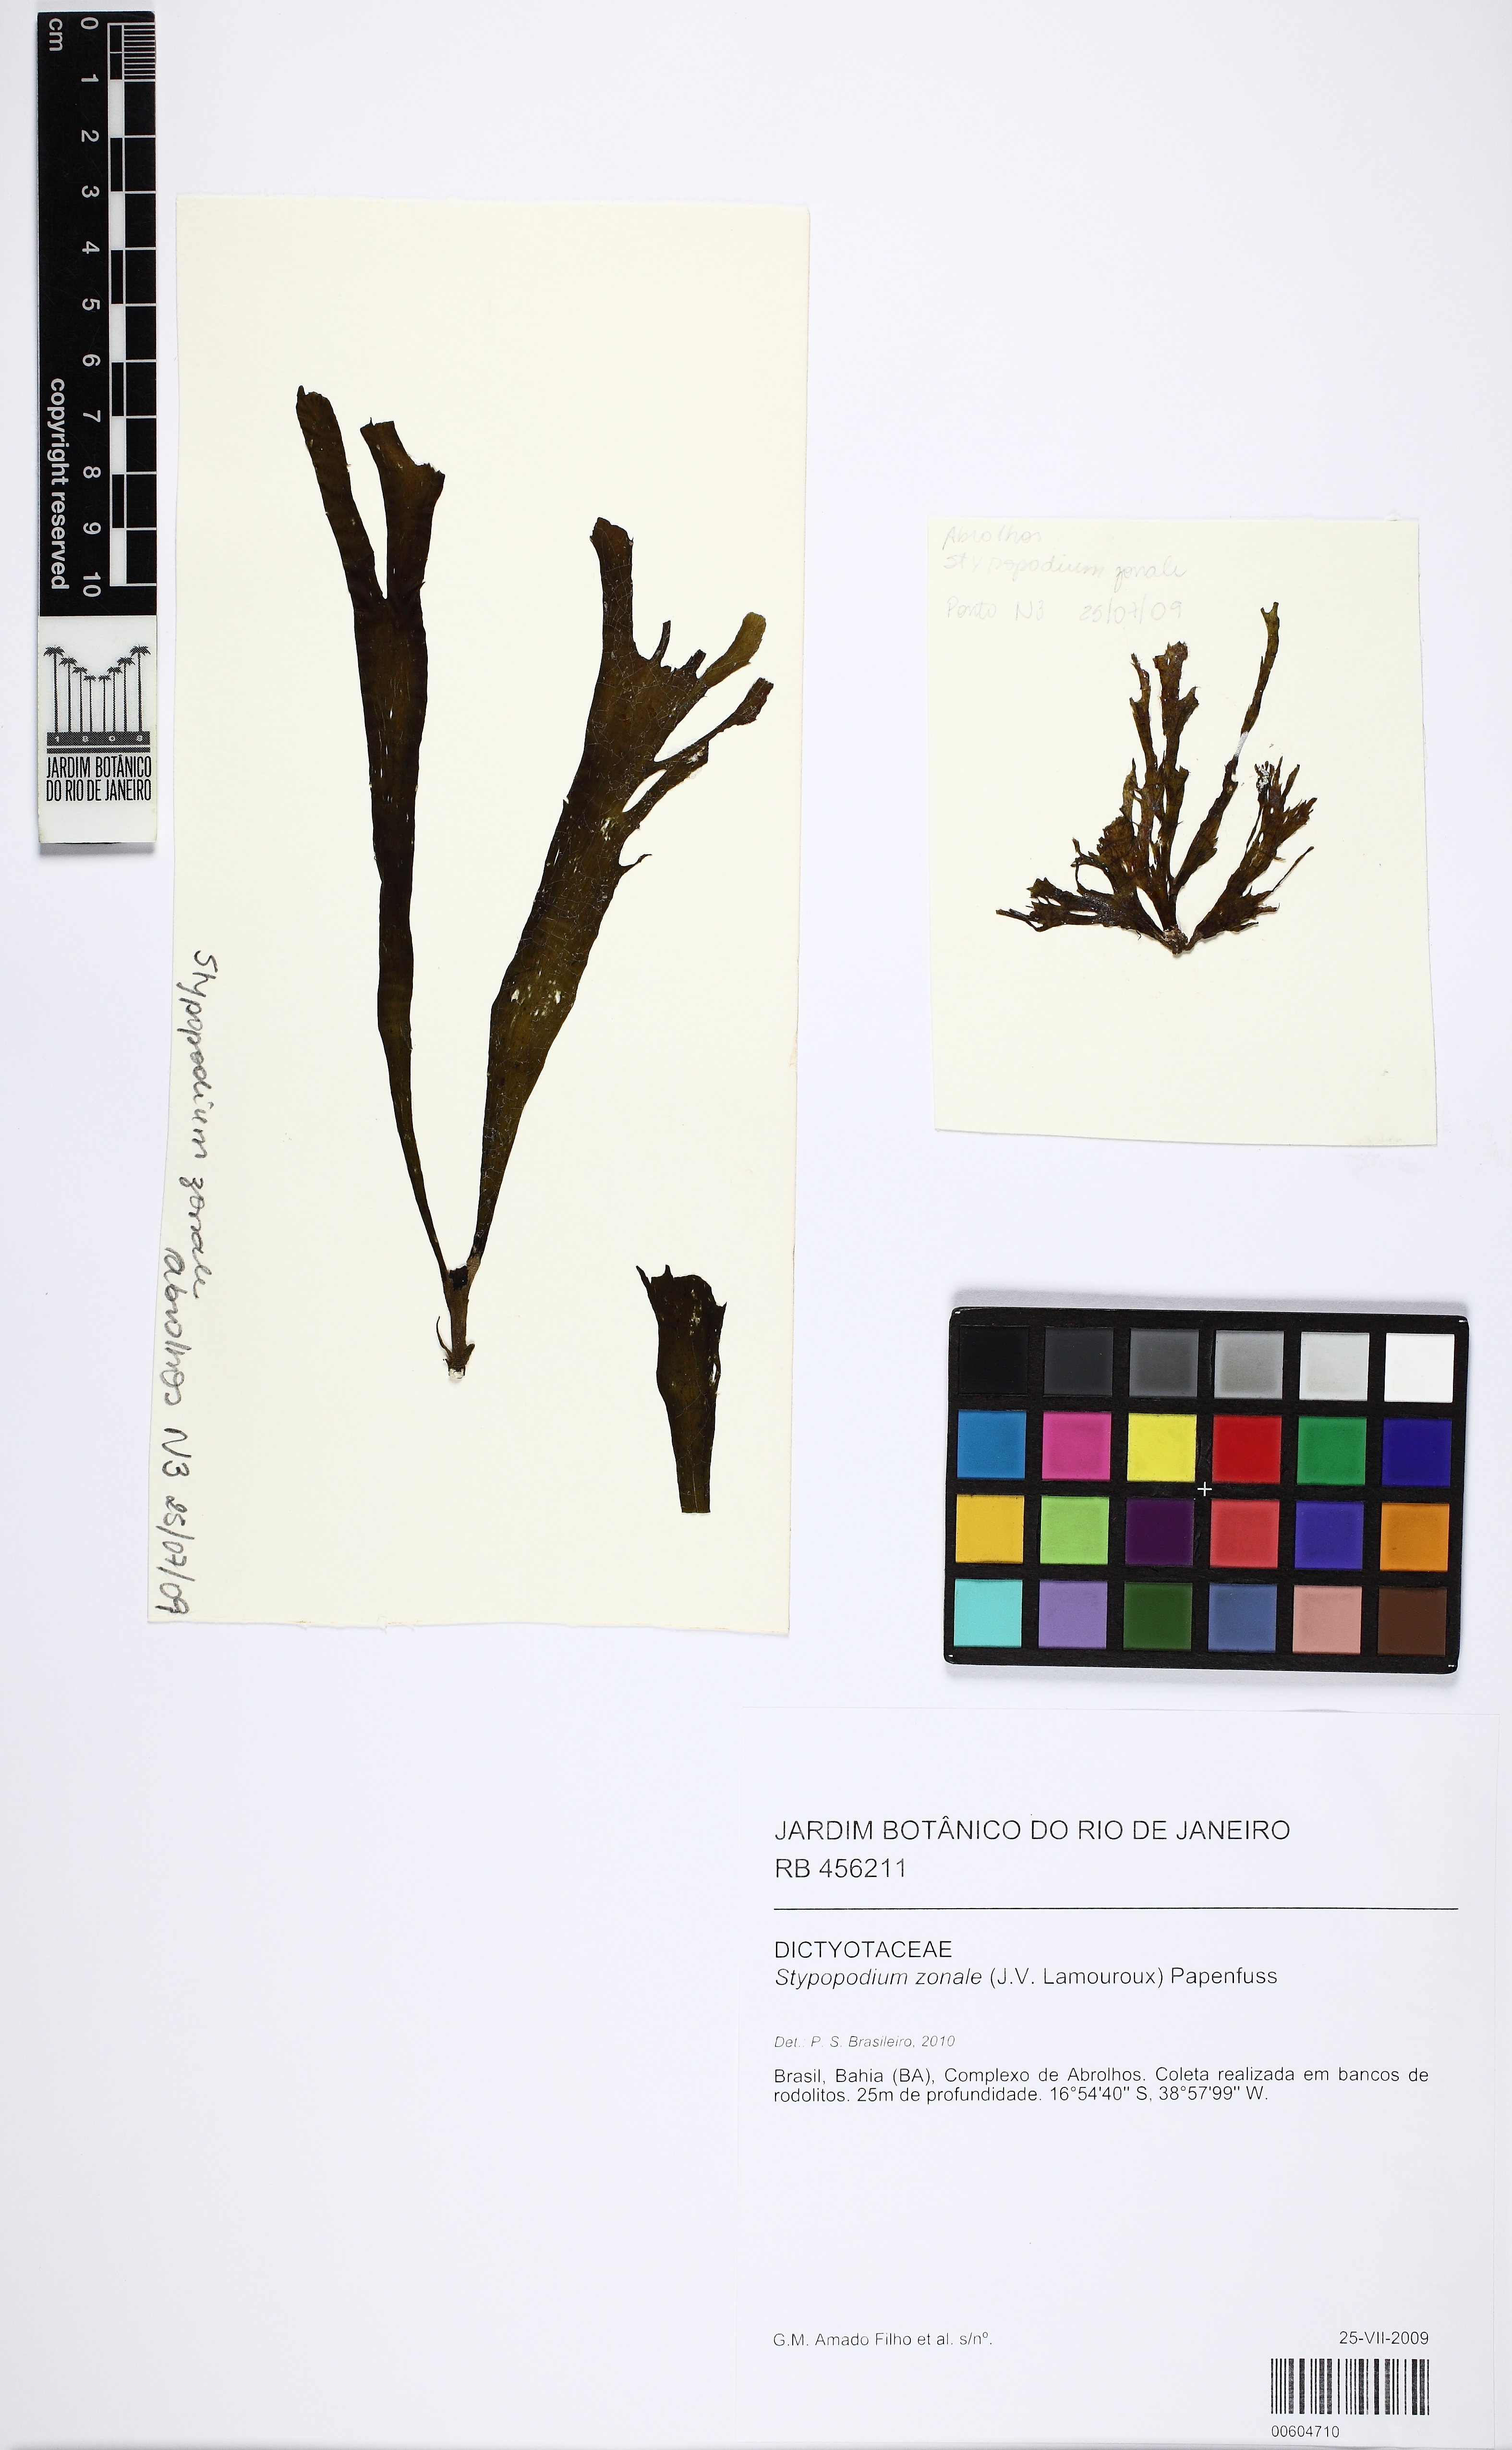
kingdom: Chromista
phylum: Ochrophyta
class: Phaeophyceae
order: Dictyotales
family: Dictyotaceae
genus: Stypopodium
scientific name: Stypopodium zonale
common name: Leafy flat-blade algae
